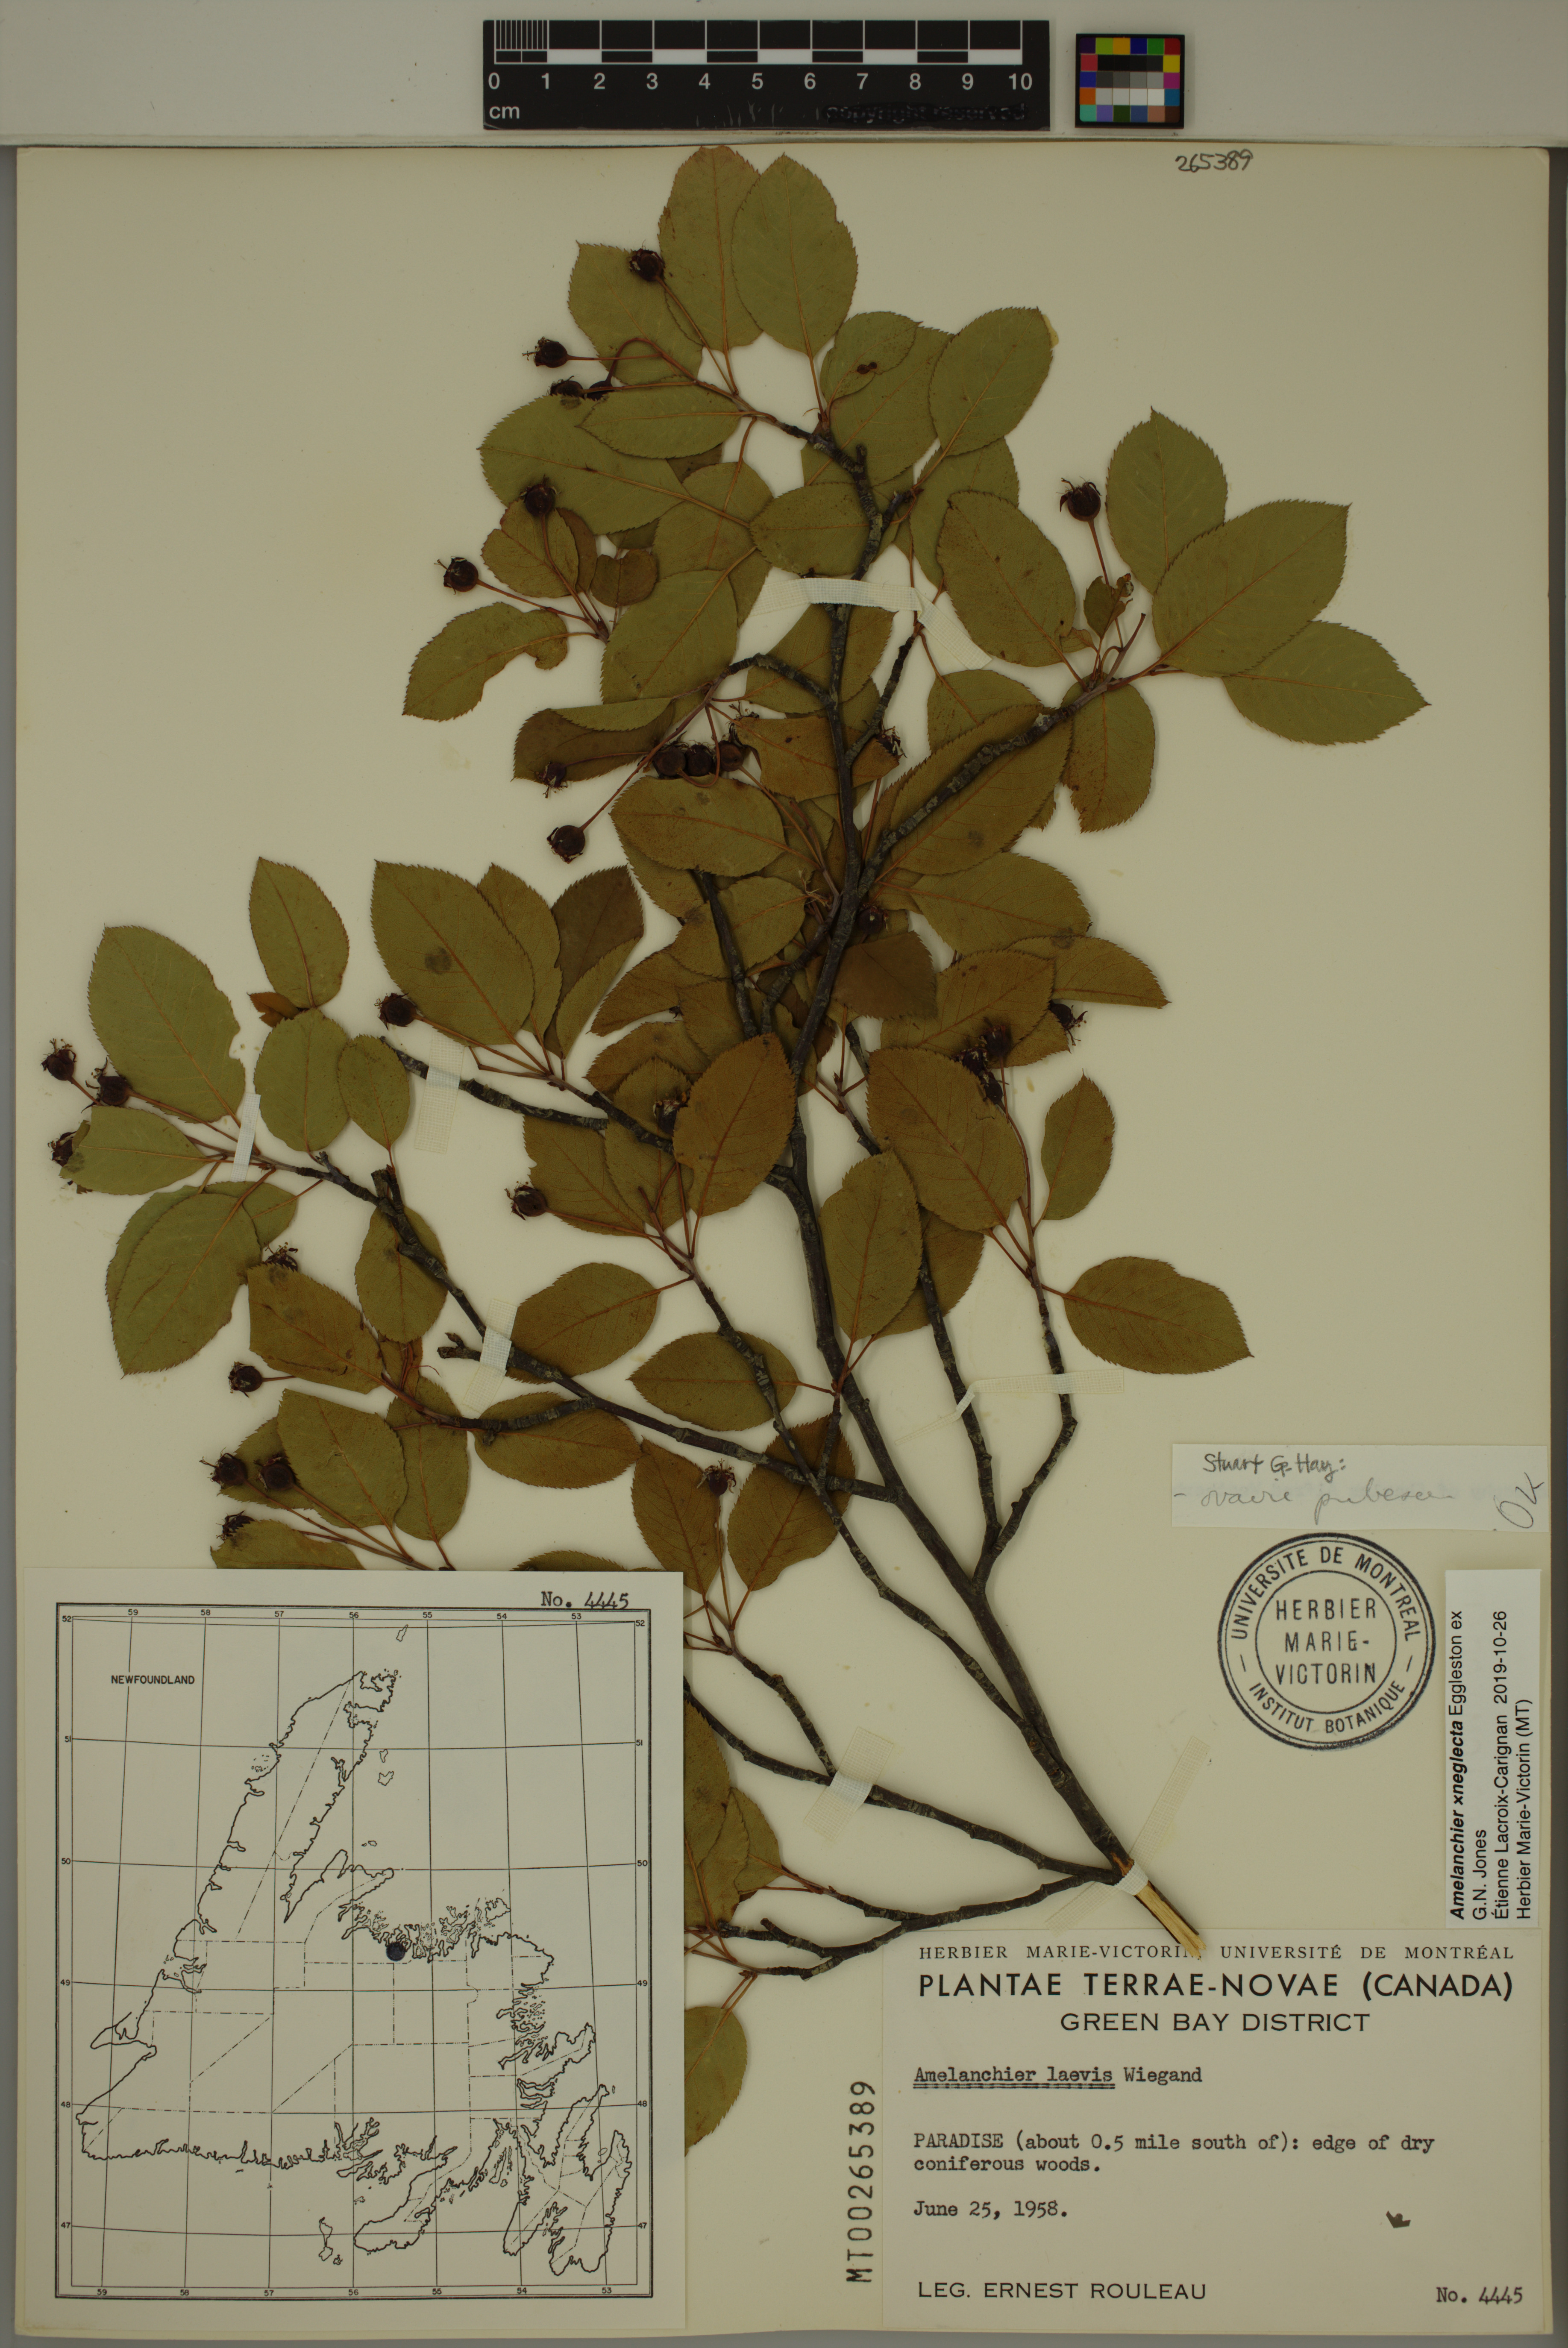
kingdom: Plantae
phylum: Tracheophyta
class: Magnoliopsida
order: Rosales
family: Rosaceae
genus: Amelanchier
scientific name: Amelanchier neglecta
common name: Overlooked serviceberry
